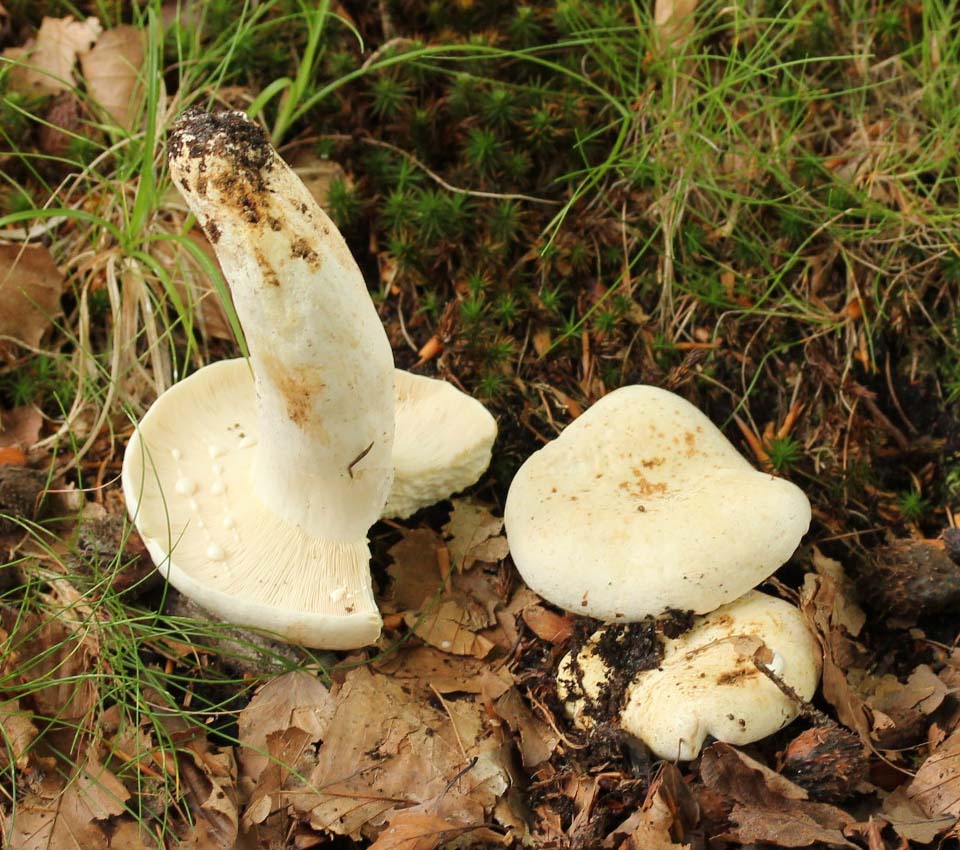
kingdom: Fungi
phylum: Basidiomycota
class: Agaricomycetes
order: Russulales
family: Russulaceae
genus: Lactifluus
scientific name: Lactifluus piperatus
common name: peber-mælkehat
